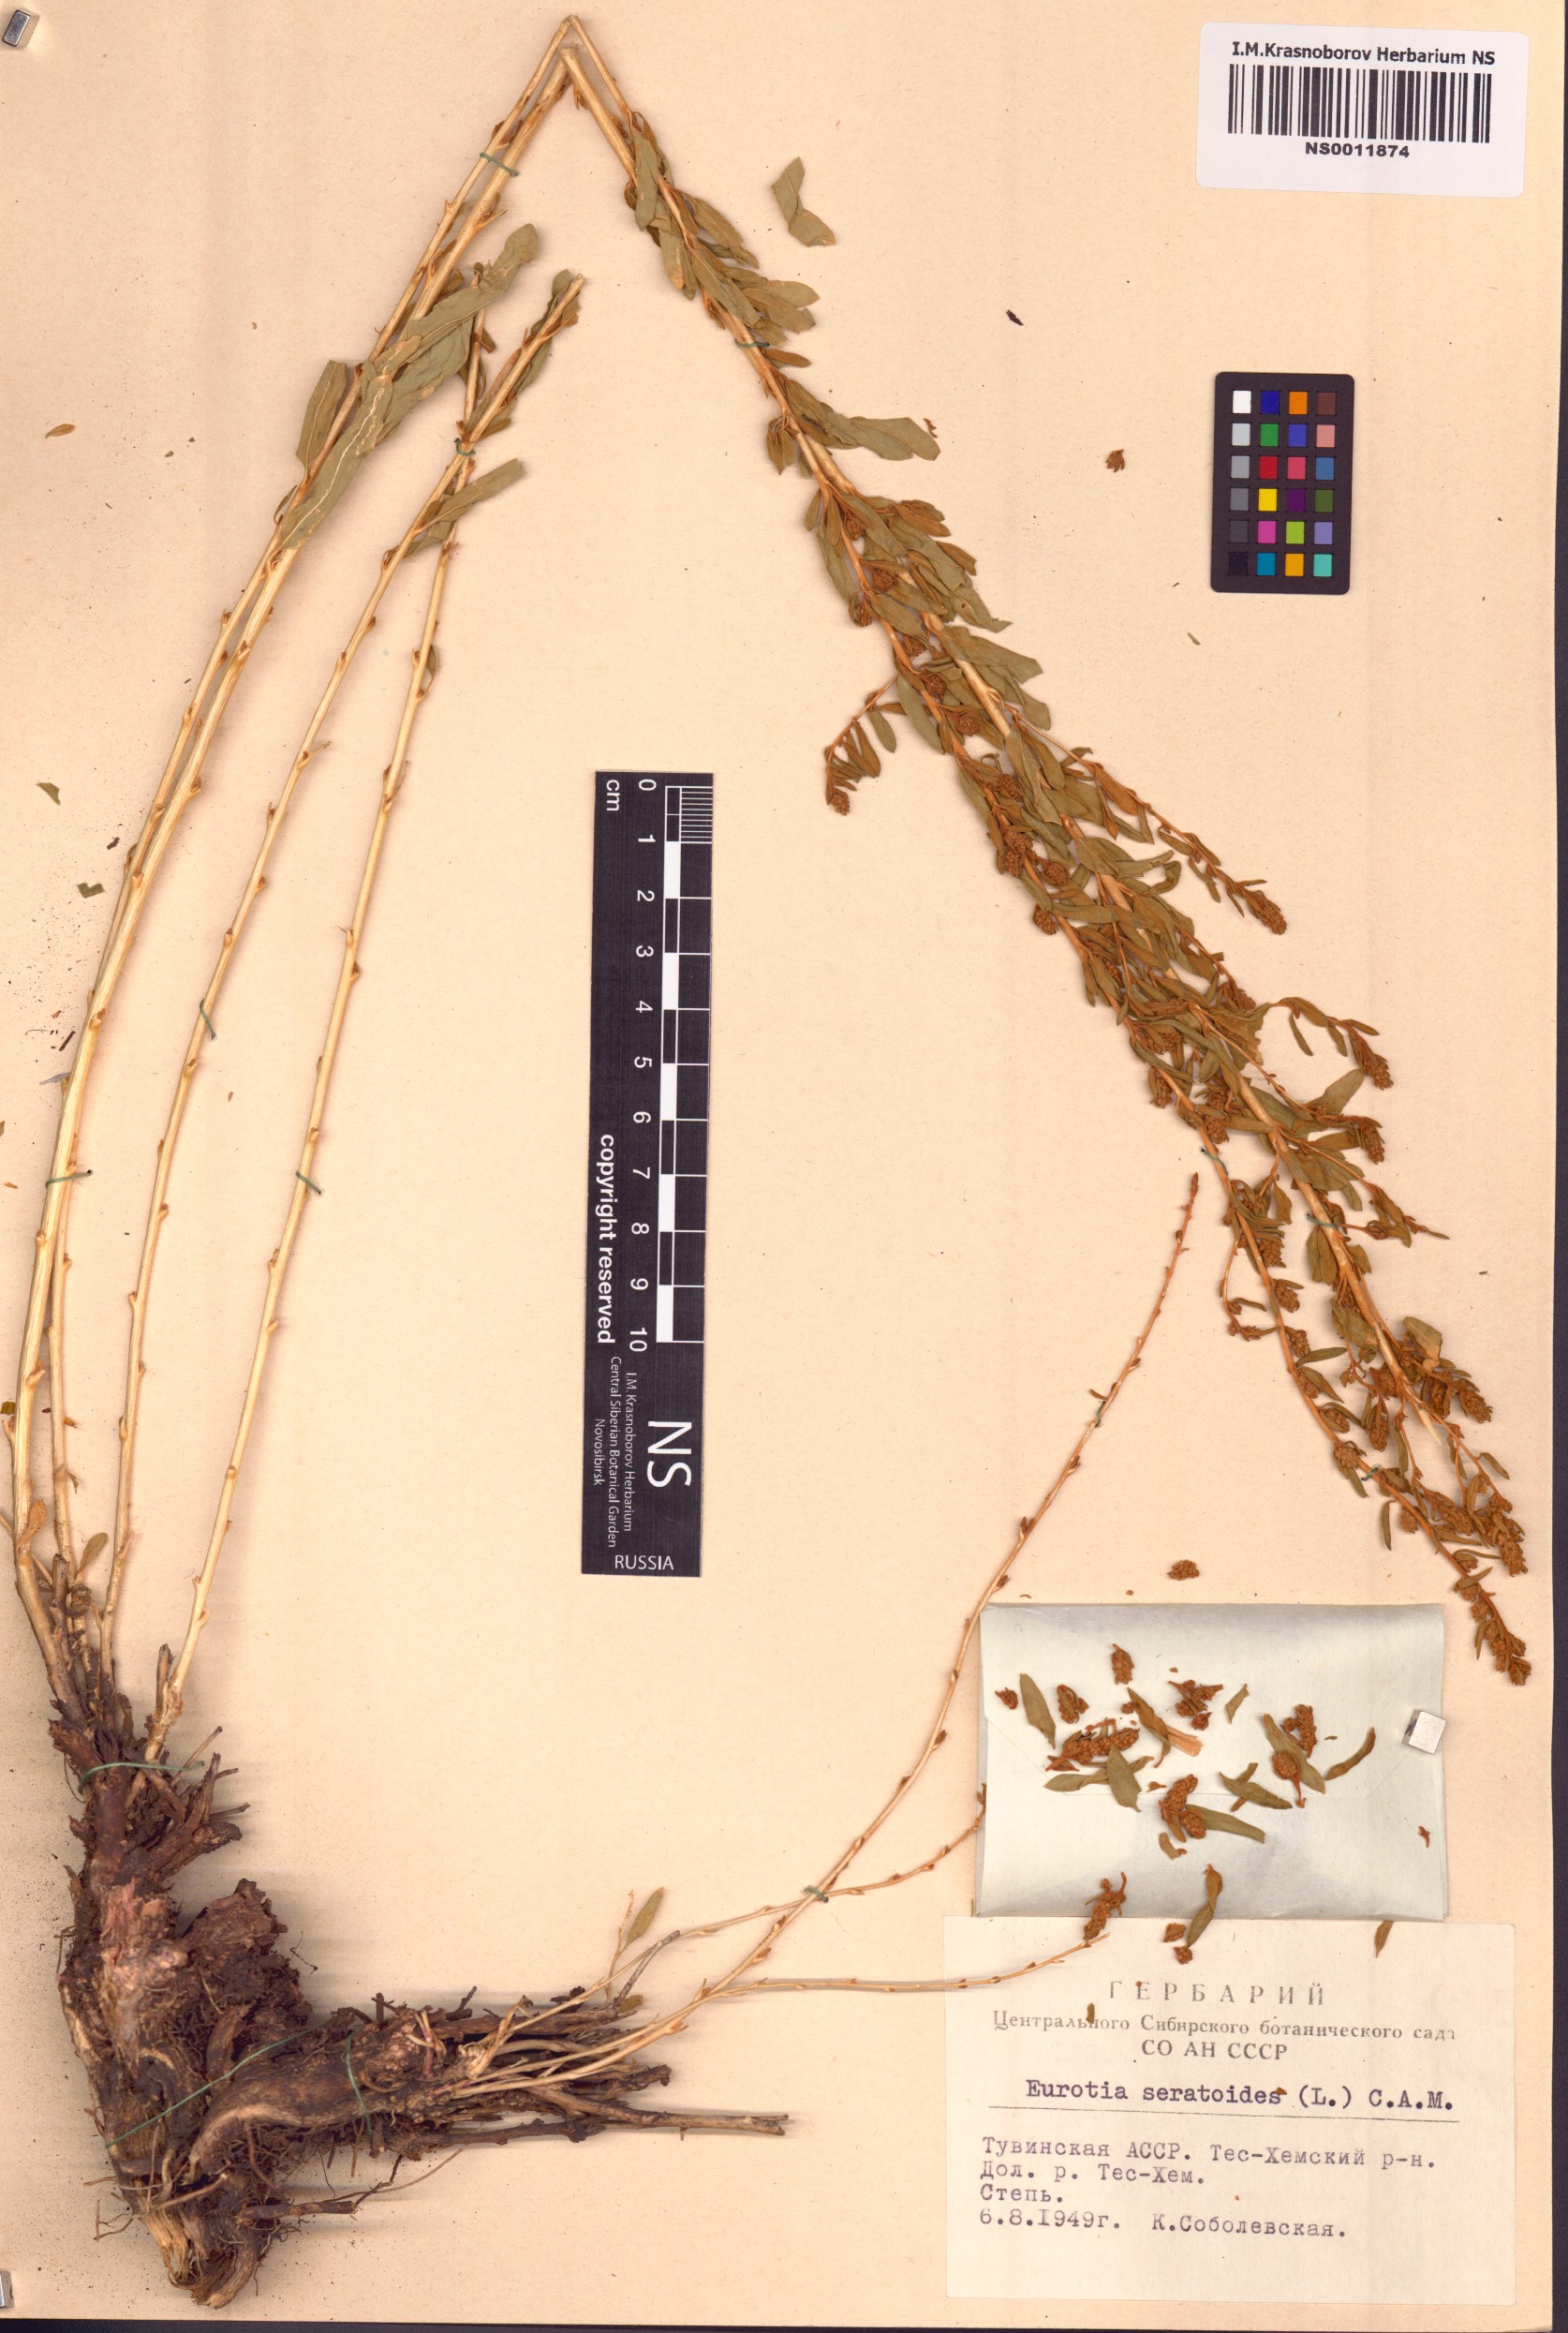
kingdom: Plantae
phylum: Tracheophyta
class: Magnoliopsida
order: Caryophyllales
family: Amaranthaceae
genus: Krascheninnikovia
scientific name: Krascheninnikovia ceratoides
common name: Pamirian winterfat
